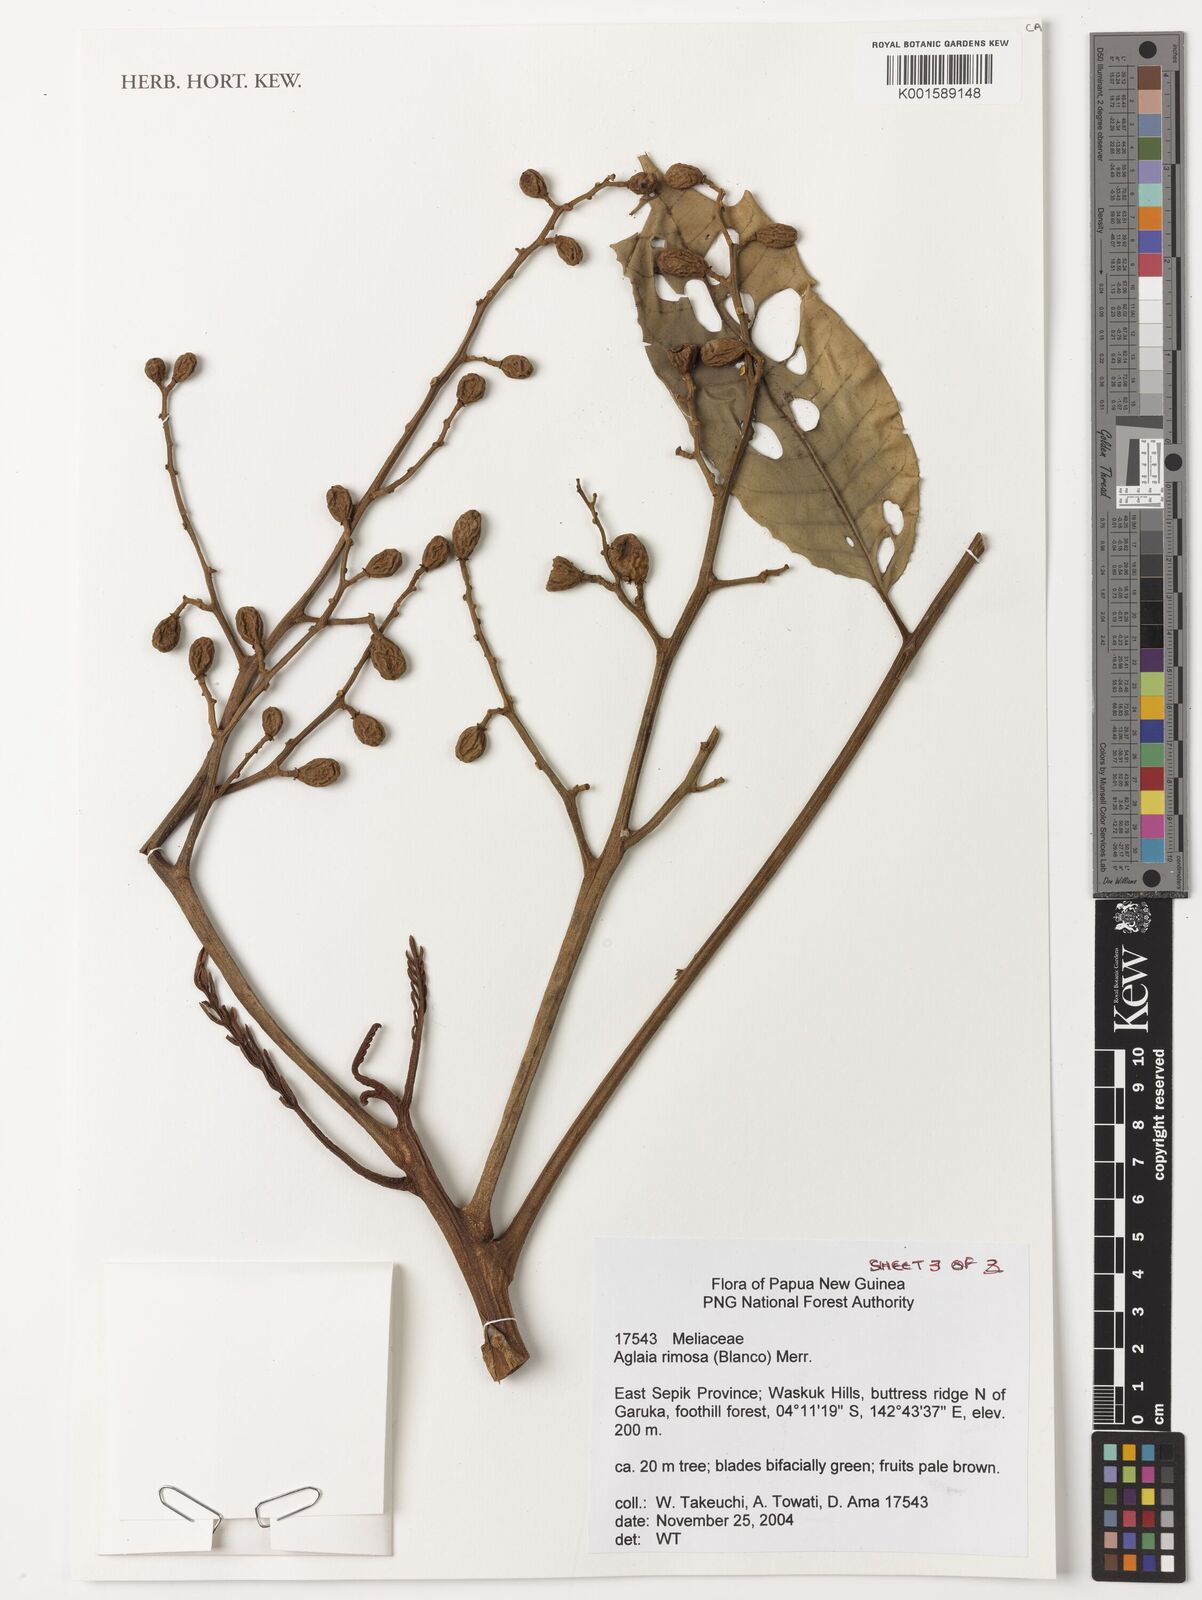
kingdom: Plantae
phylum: Tracheophyta
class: Magnoliopsida
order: Sapindales
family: Meliaceae
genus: Aglaia
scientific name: Aglaia rimosa
